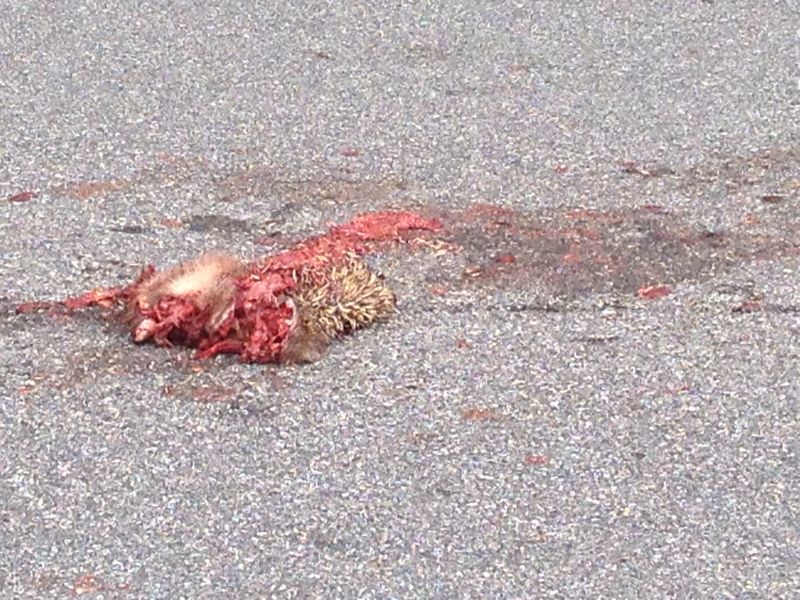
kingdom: Animalia
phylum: Chordata
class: Mammalia
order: Erinaceomorpha
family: Erinaceidae
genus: Erinaceus
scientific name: Erinaceus
